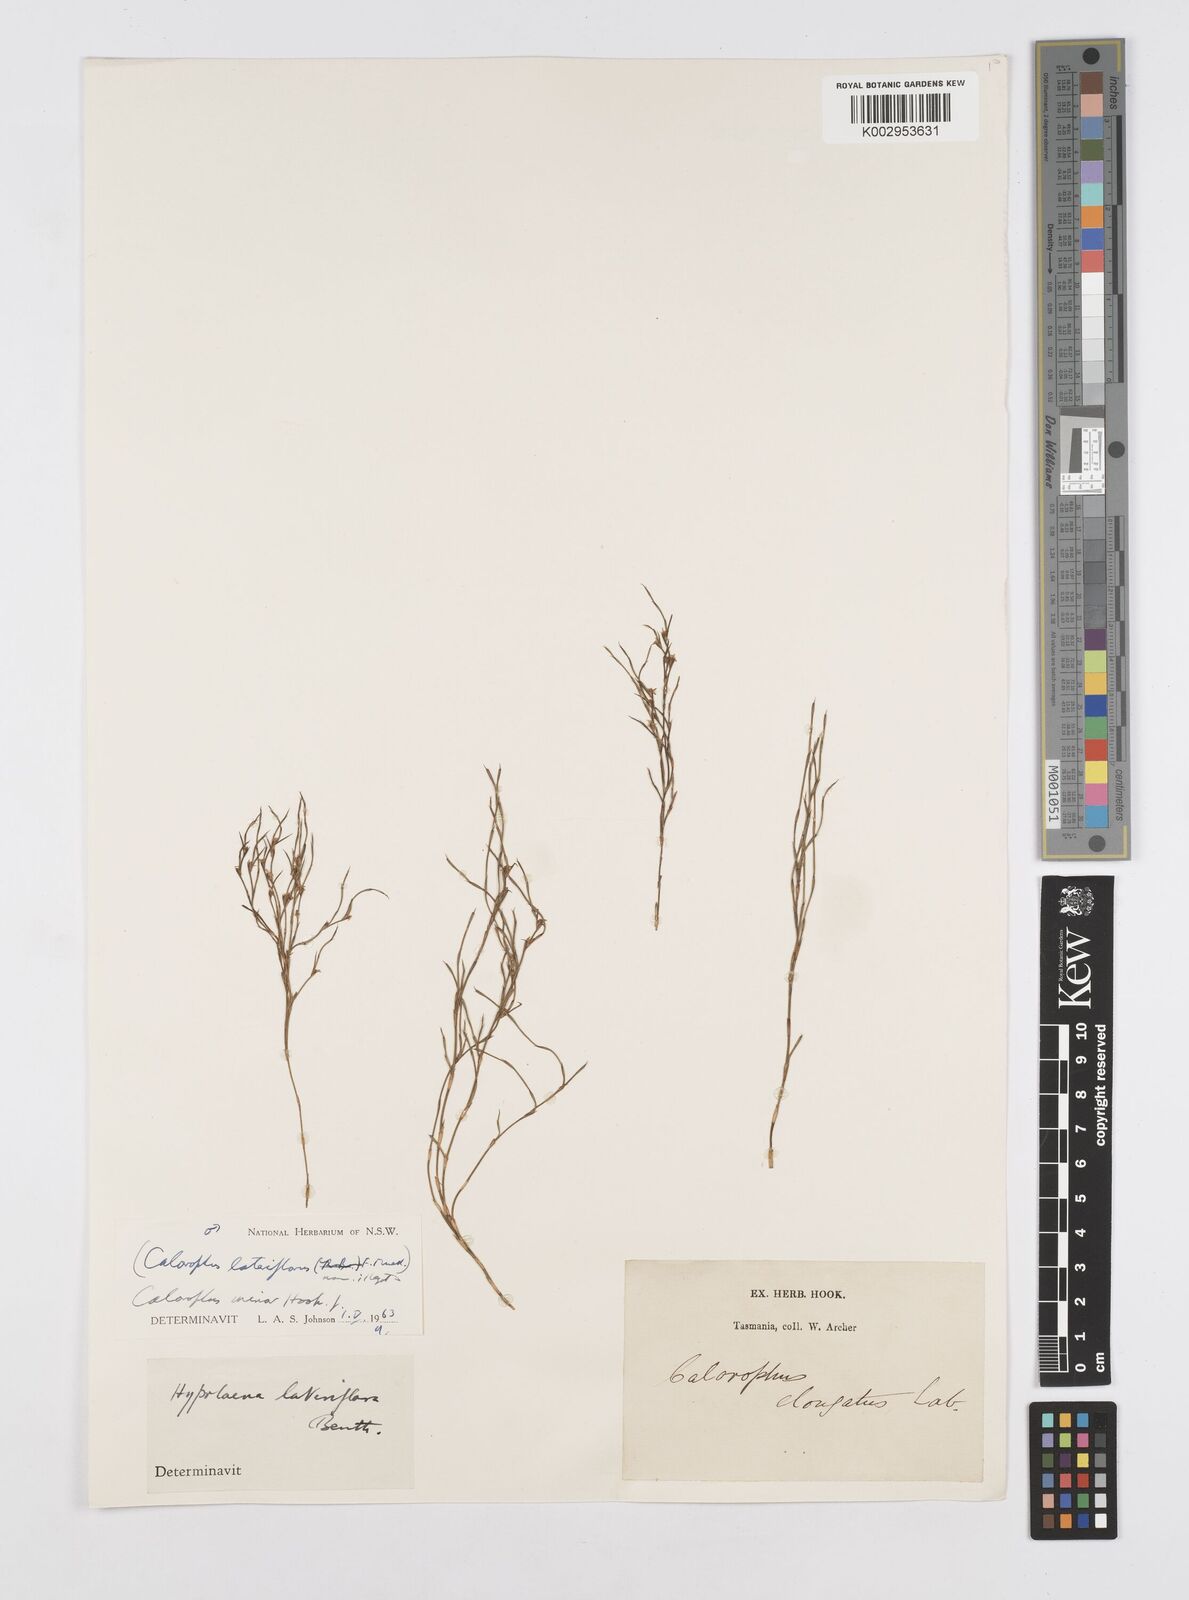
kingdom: Plantae
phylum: Tracheophyta
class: Liliopsida
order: Poales
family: Restionaceae
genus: Empodisma
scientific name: Empodisma minus
